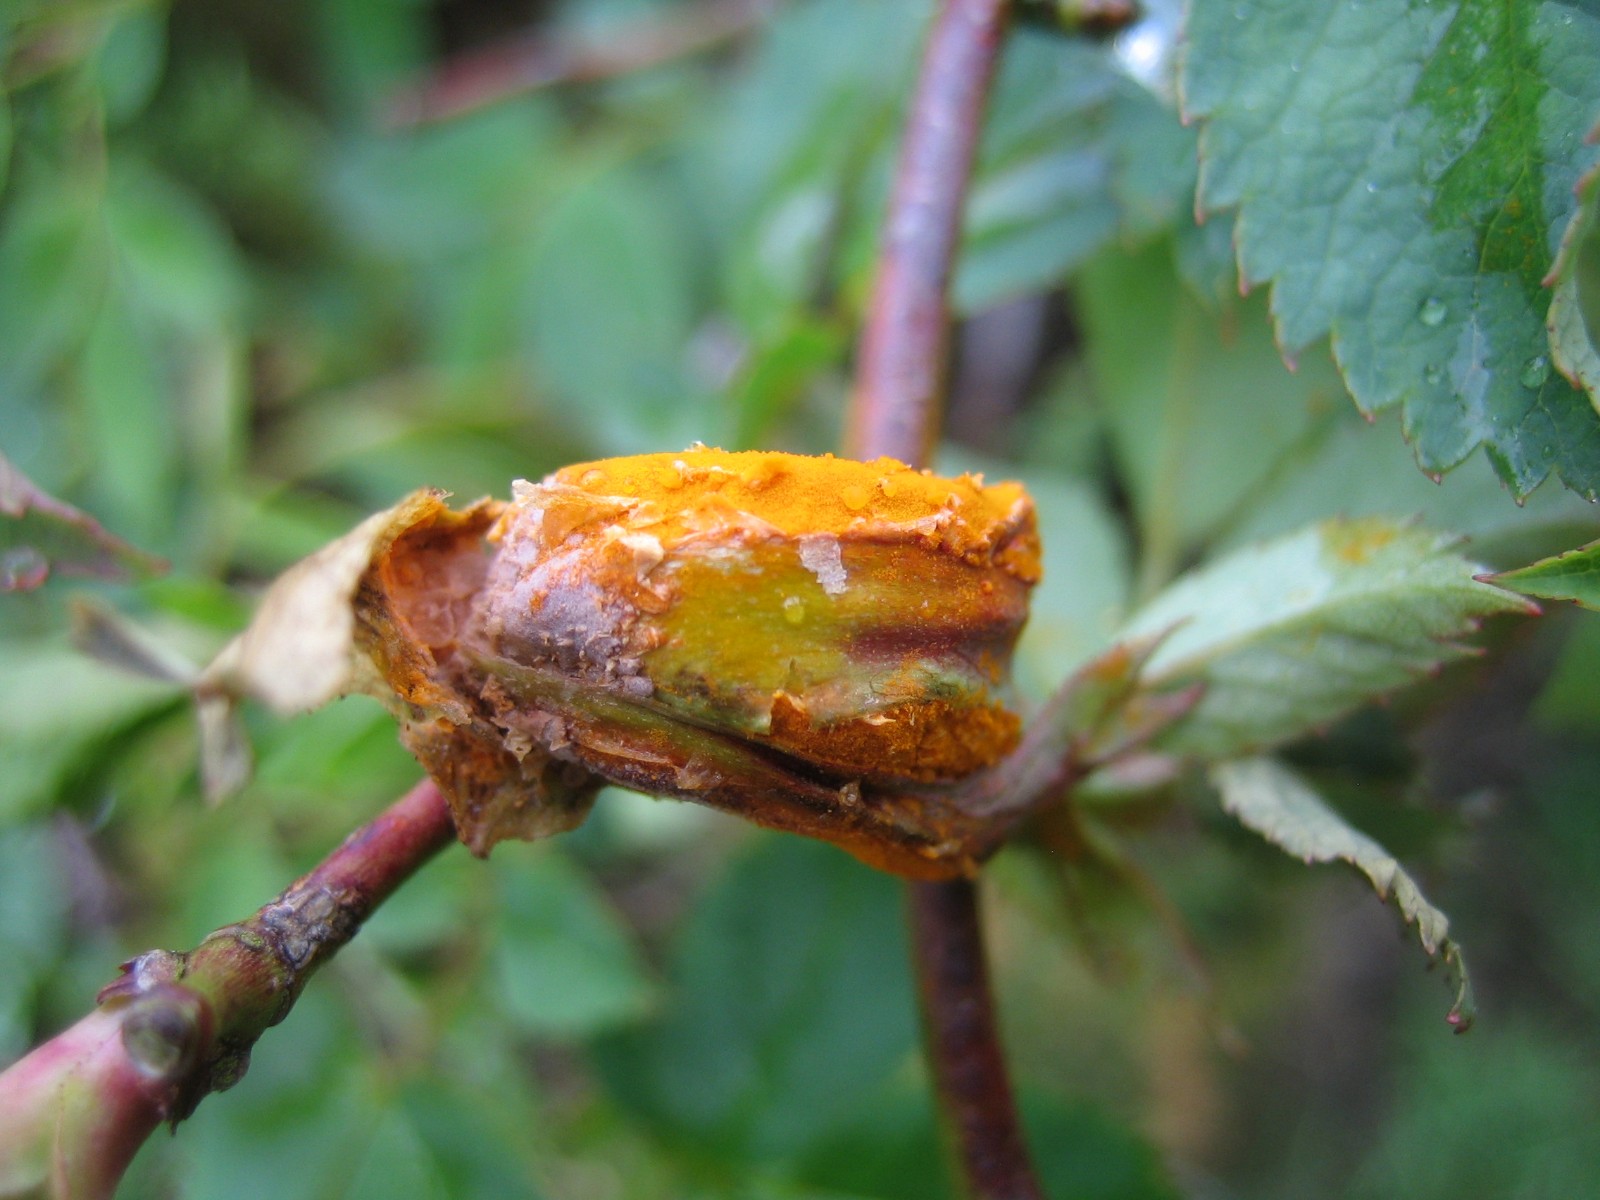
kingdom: Fungi
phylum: Basidiomycota
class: Pucciniomycetes
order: Pucciniales
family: Phragmidiaceae
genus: Phragmidium
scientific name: Phragmidium
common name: flercellerust
